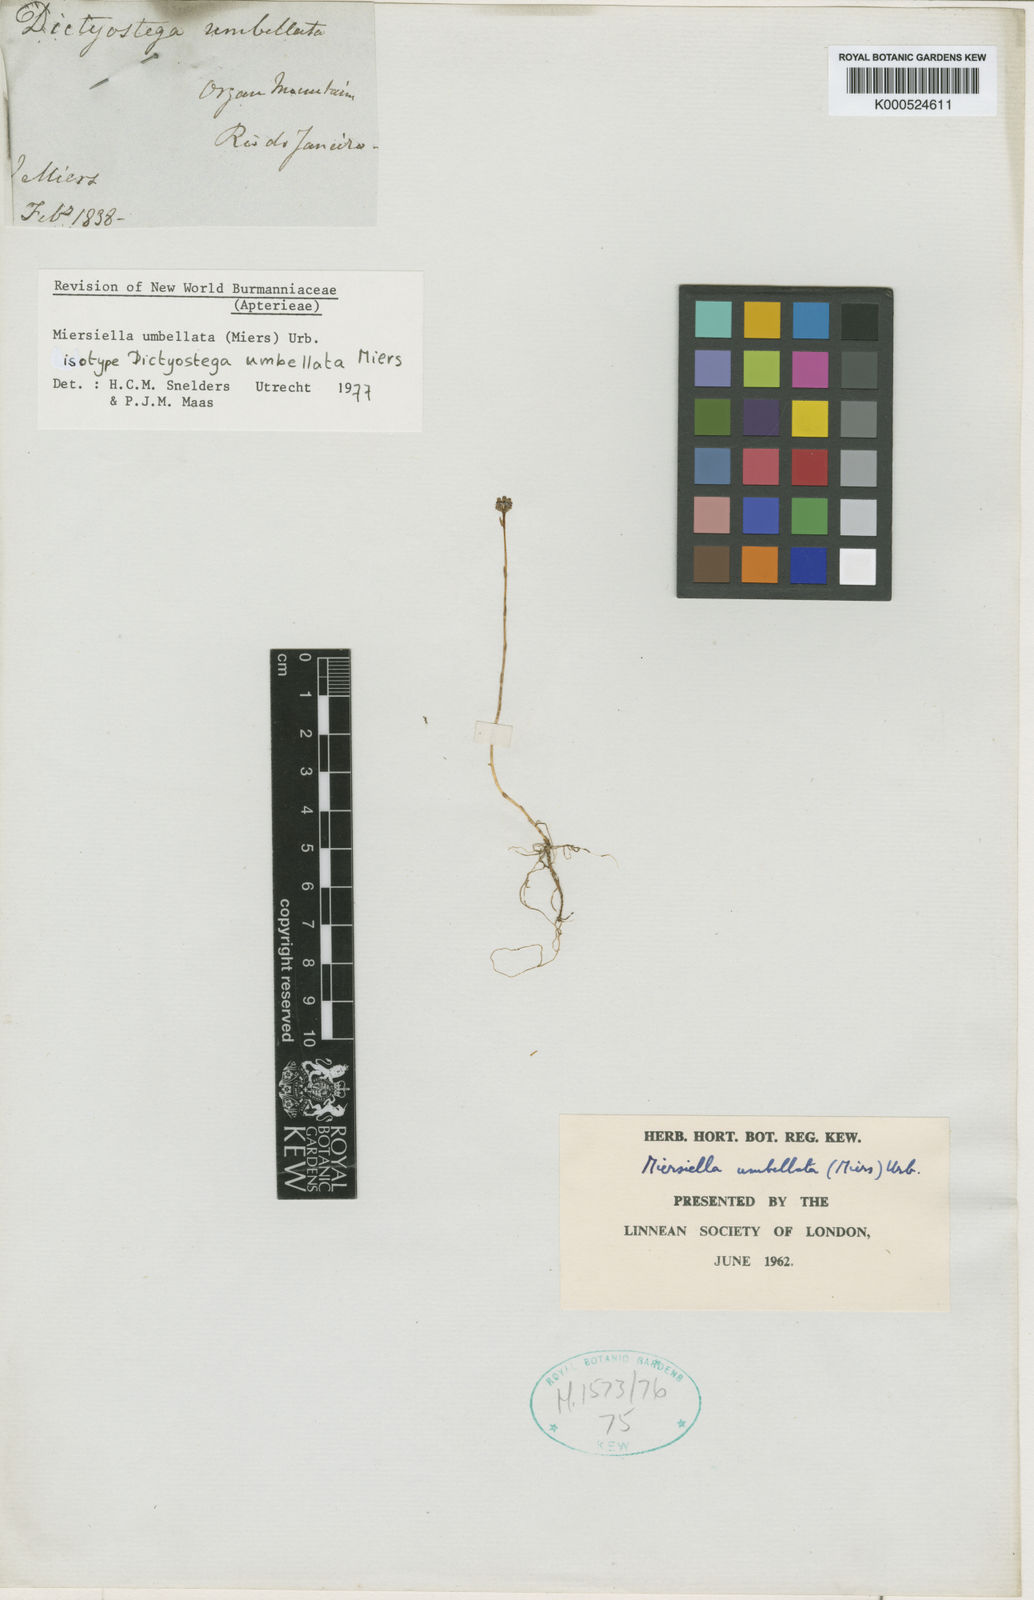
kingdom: Plantae
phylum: Tracheophyta
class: Liliopsida
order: Dioscoreales
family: Burmanniaceae
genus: Miersiella
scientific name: Miersiella umbellata
